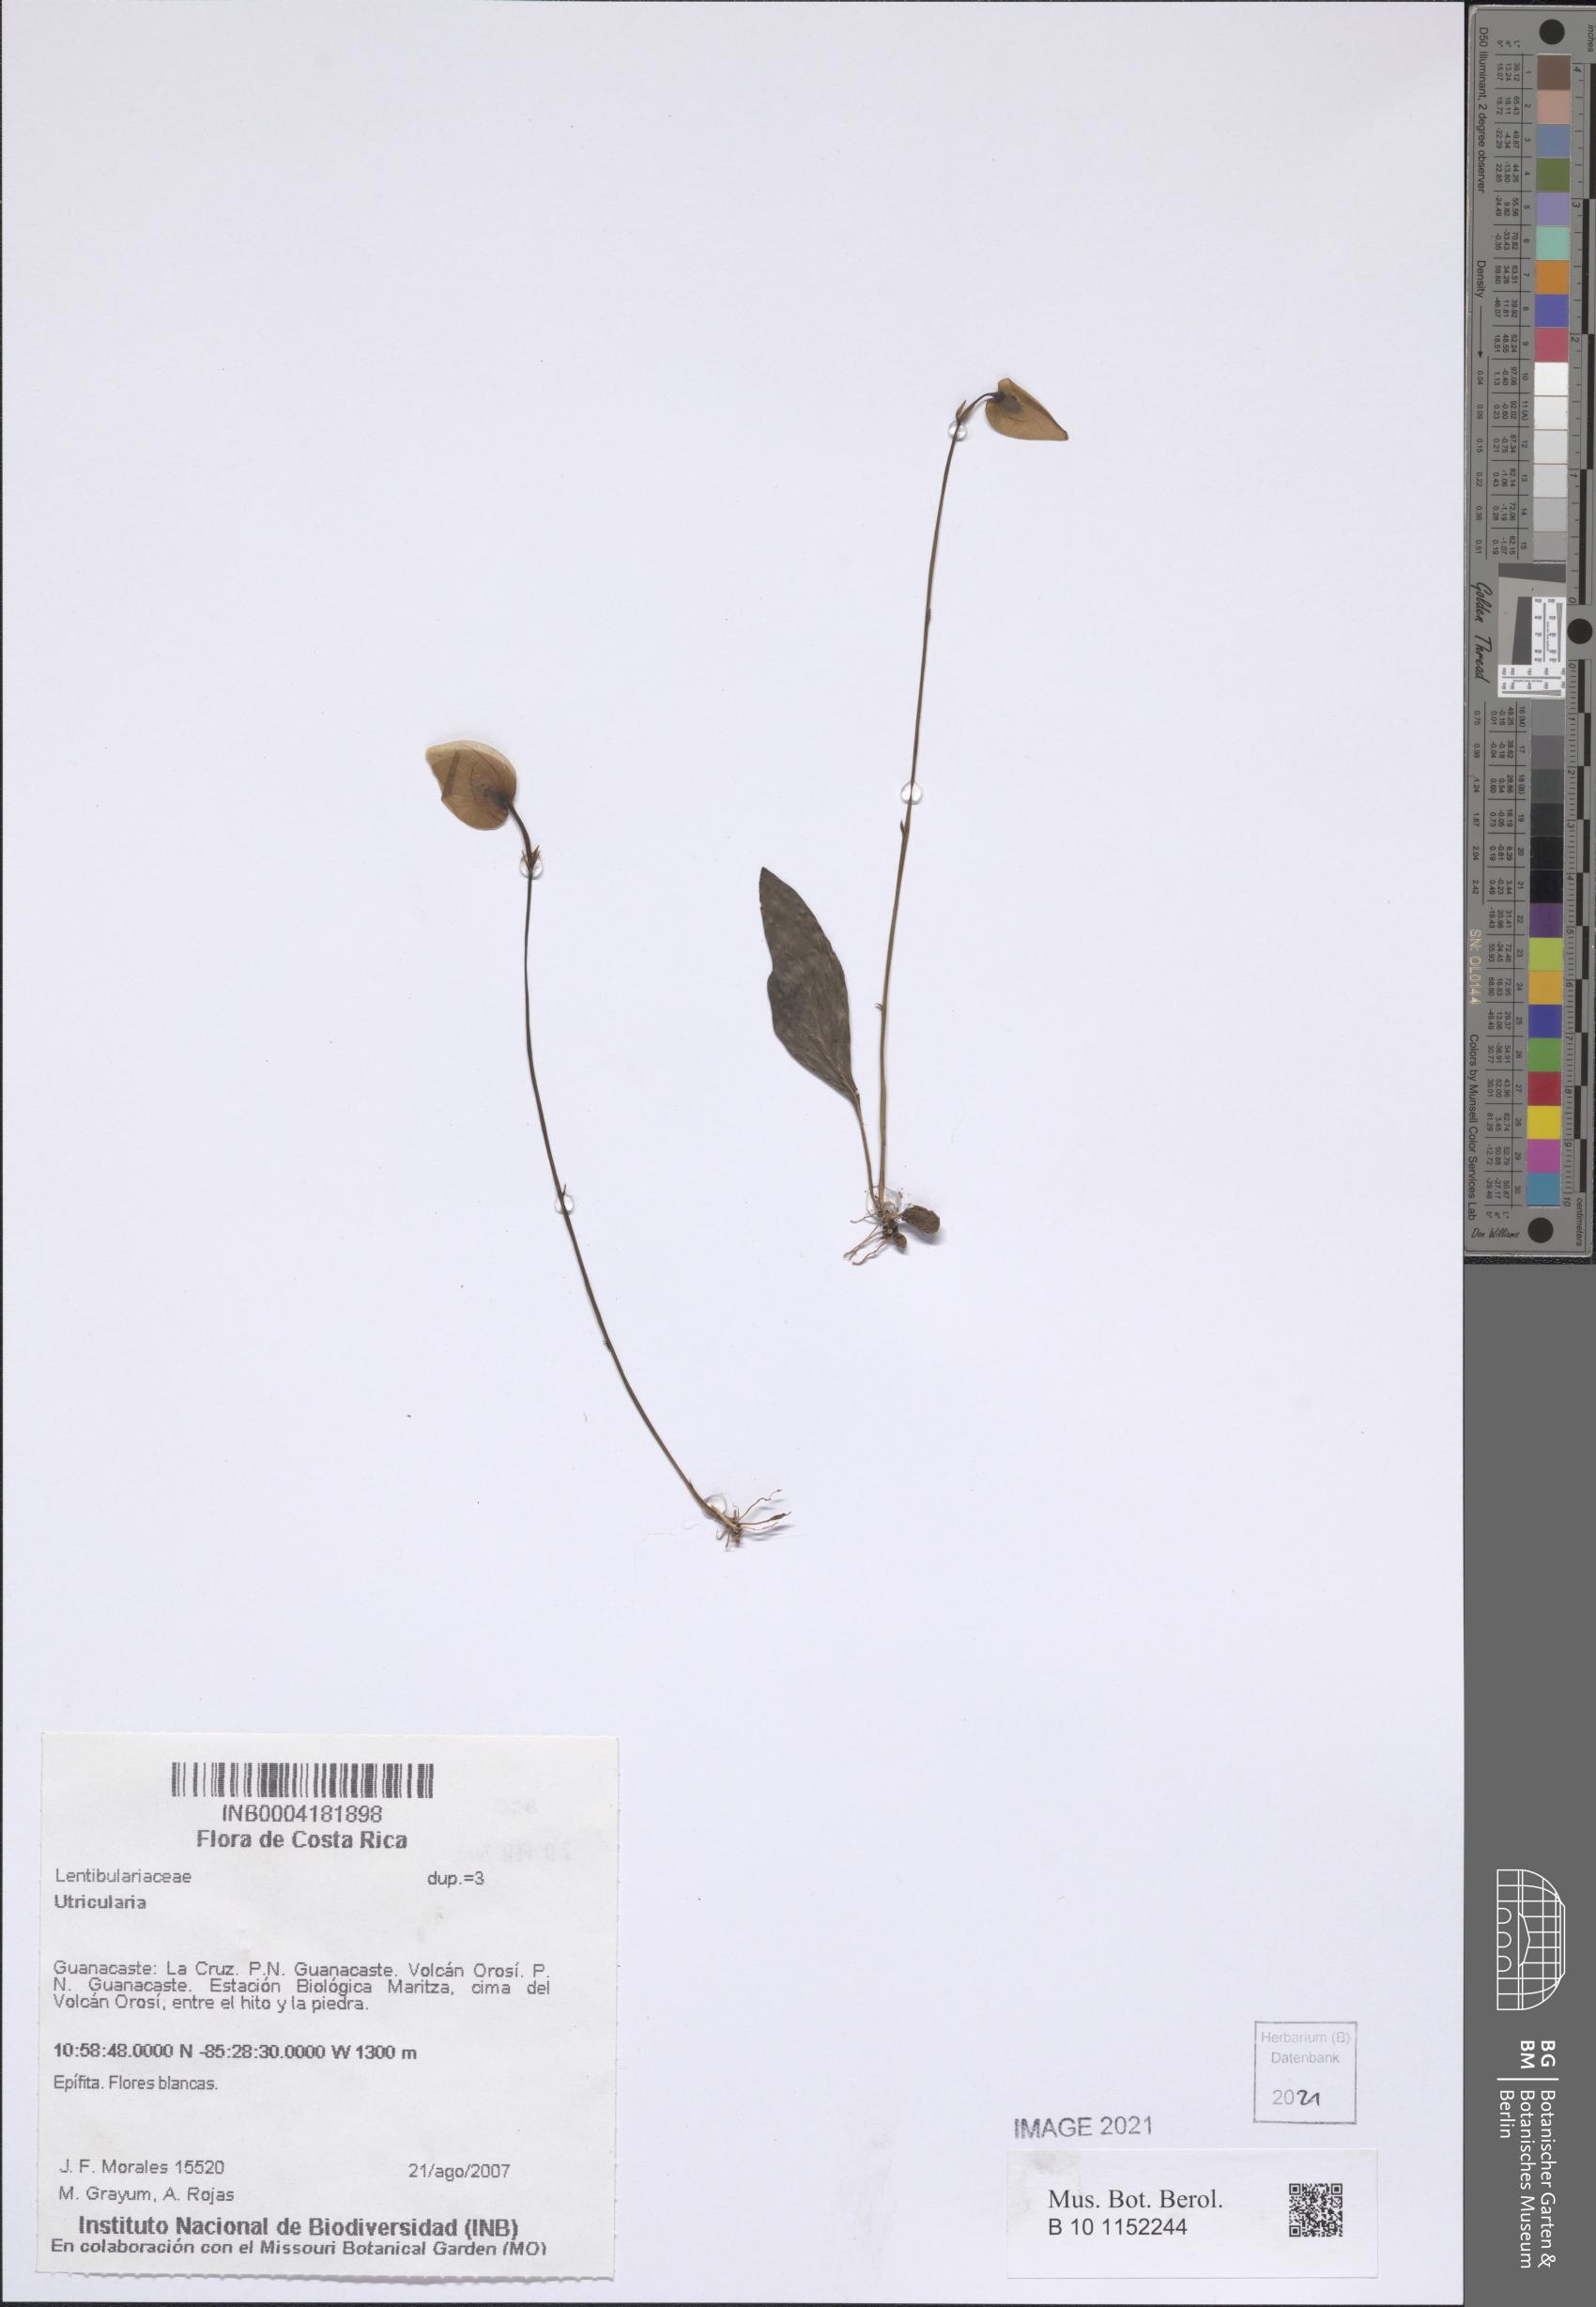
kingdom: Plantae
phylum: Tracheophyta
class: Magnoliopsida
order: Lamiales
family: Lentibulariaceae
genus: Utricularia
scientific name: Utricularia
